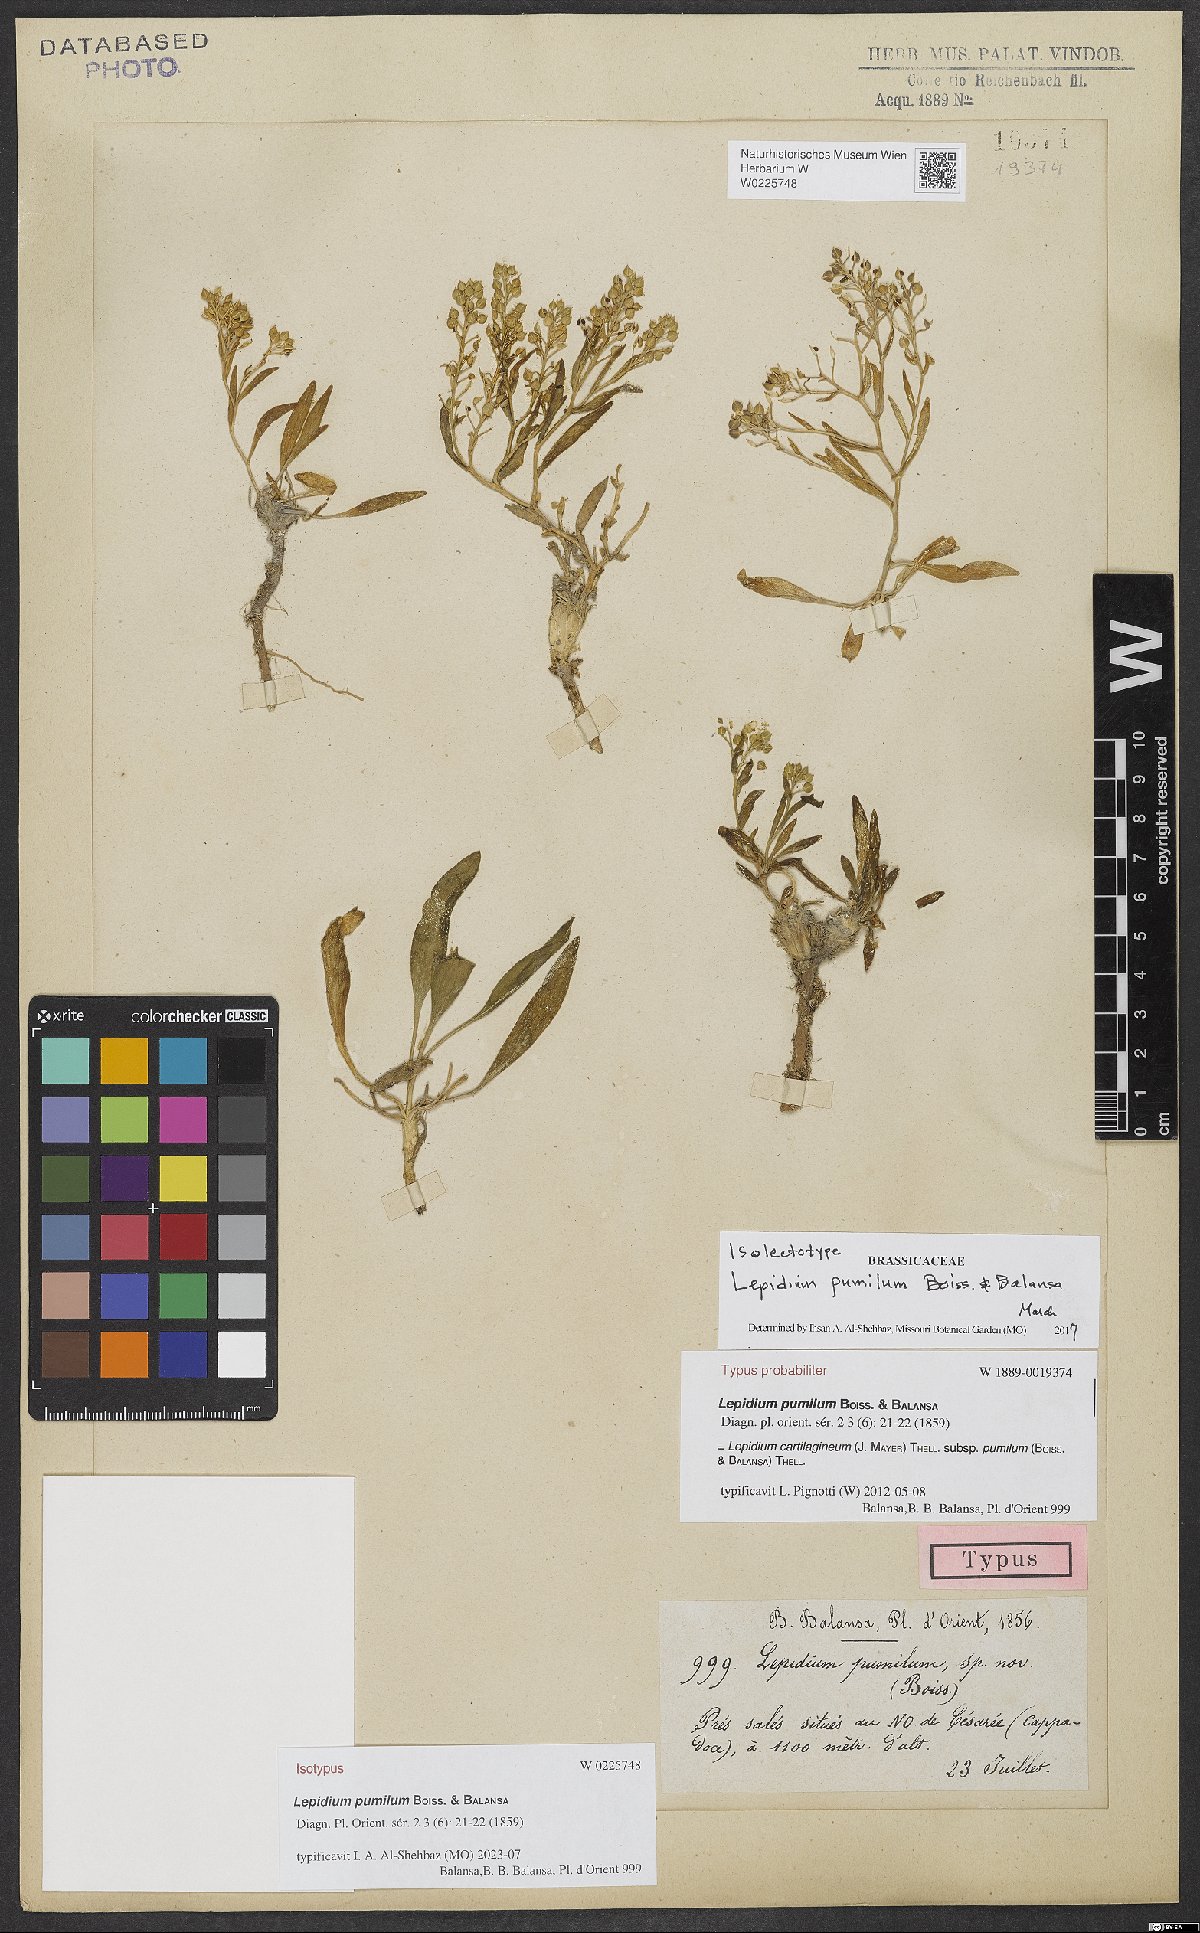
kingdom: Plantae
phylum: Tracheophyta
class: Magnoliopsida
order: Brassicales
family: Brassicaceae
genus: Lepidium
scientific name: Lepidium cartilagineum
